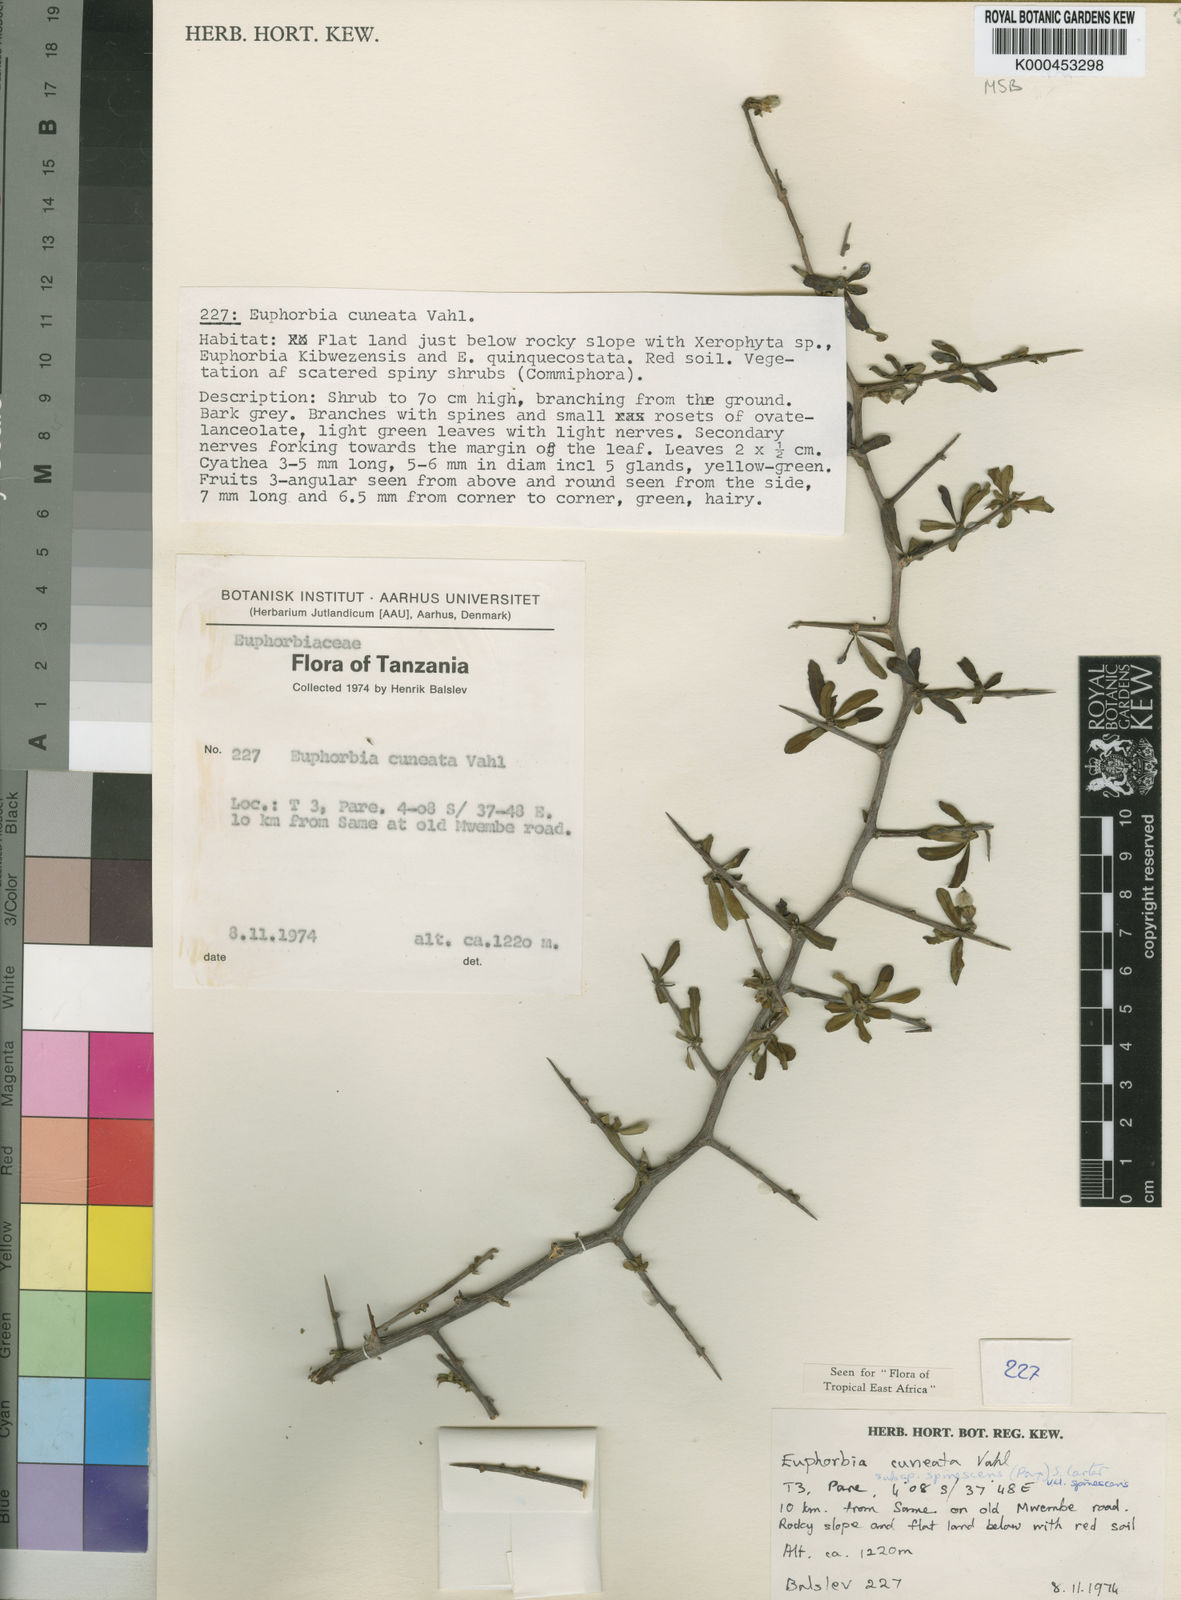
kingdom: Plantae
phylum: Tracheophyta
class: Magnoliopsida
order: Malpighiales
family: Euphorbiaceae
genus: Euphorbia
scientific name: Euphorbia cuneata
